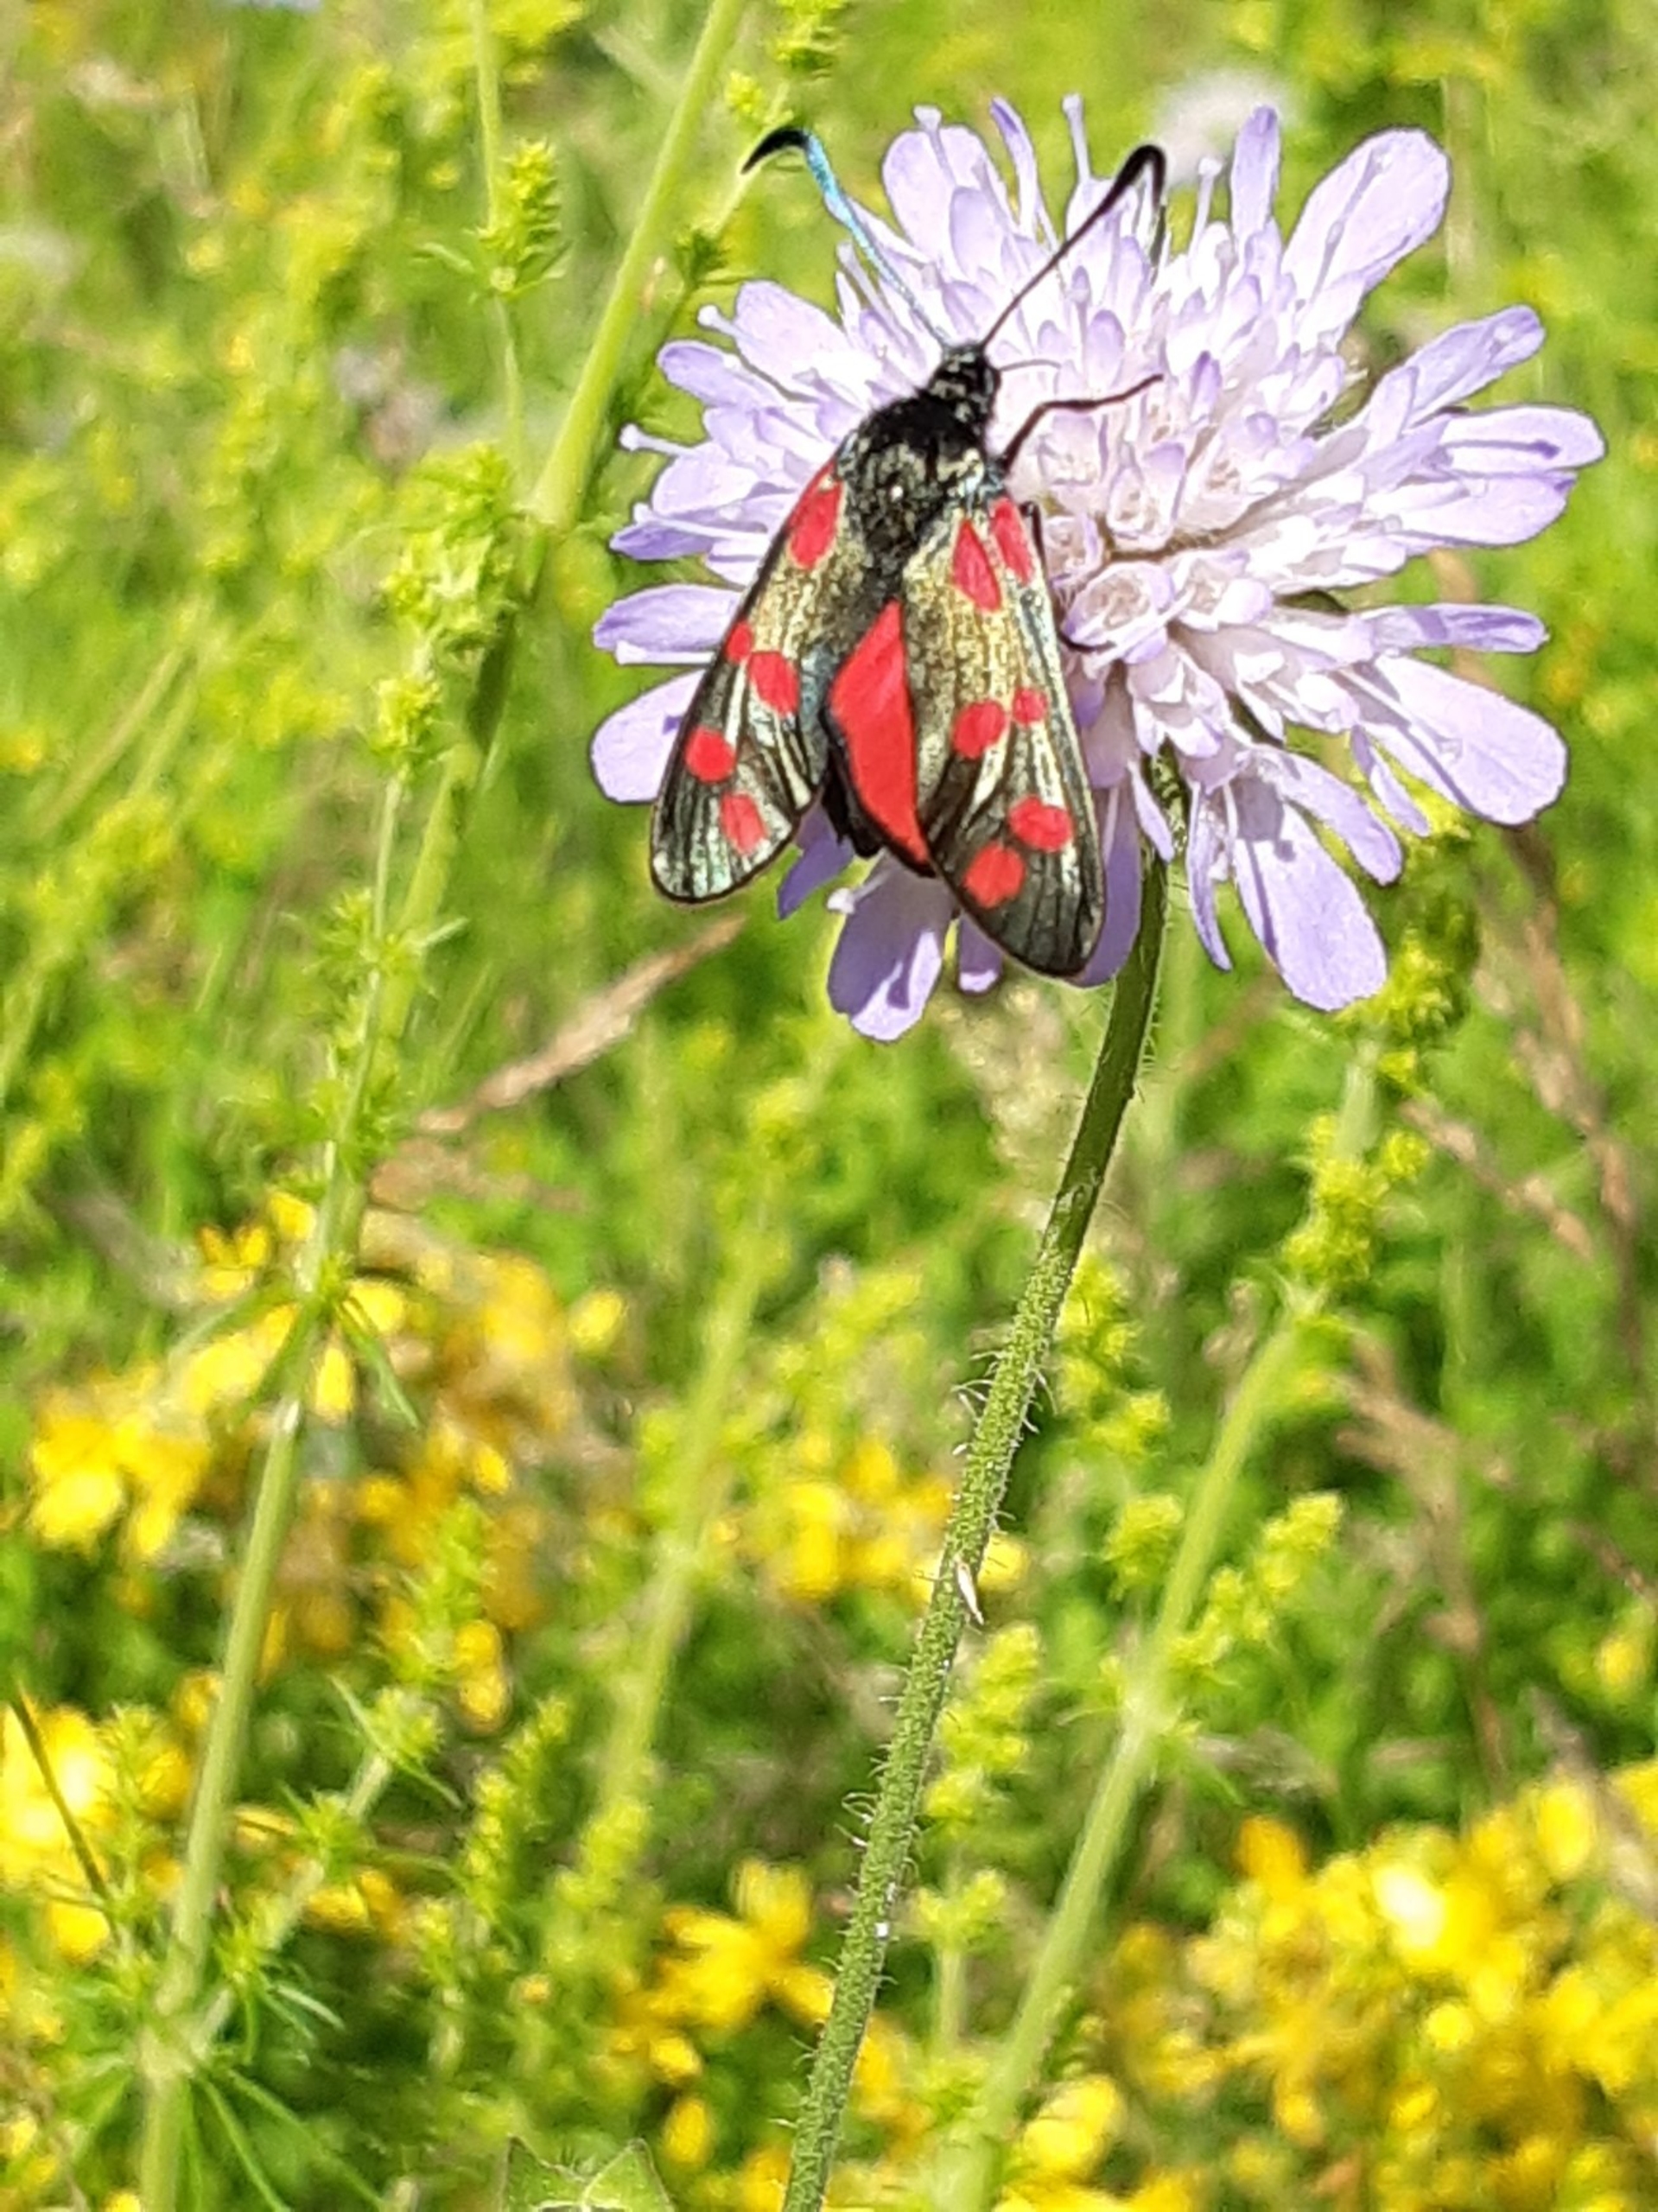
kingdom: Animalia
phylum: Arthropoda
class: Insecta
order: Lepidoptera
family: Zygaenidae
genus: Zygaena
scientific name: Zygaena filipendulae
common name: Seksplettet køllesværmer
